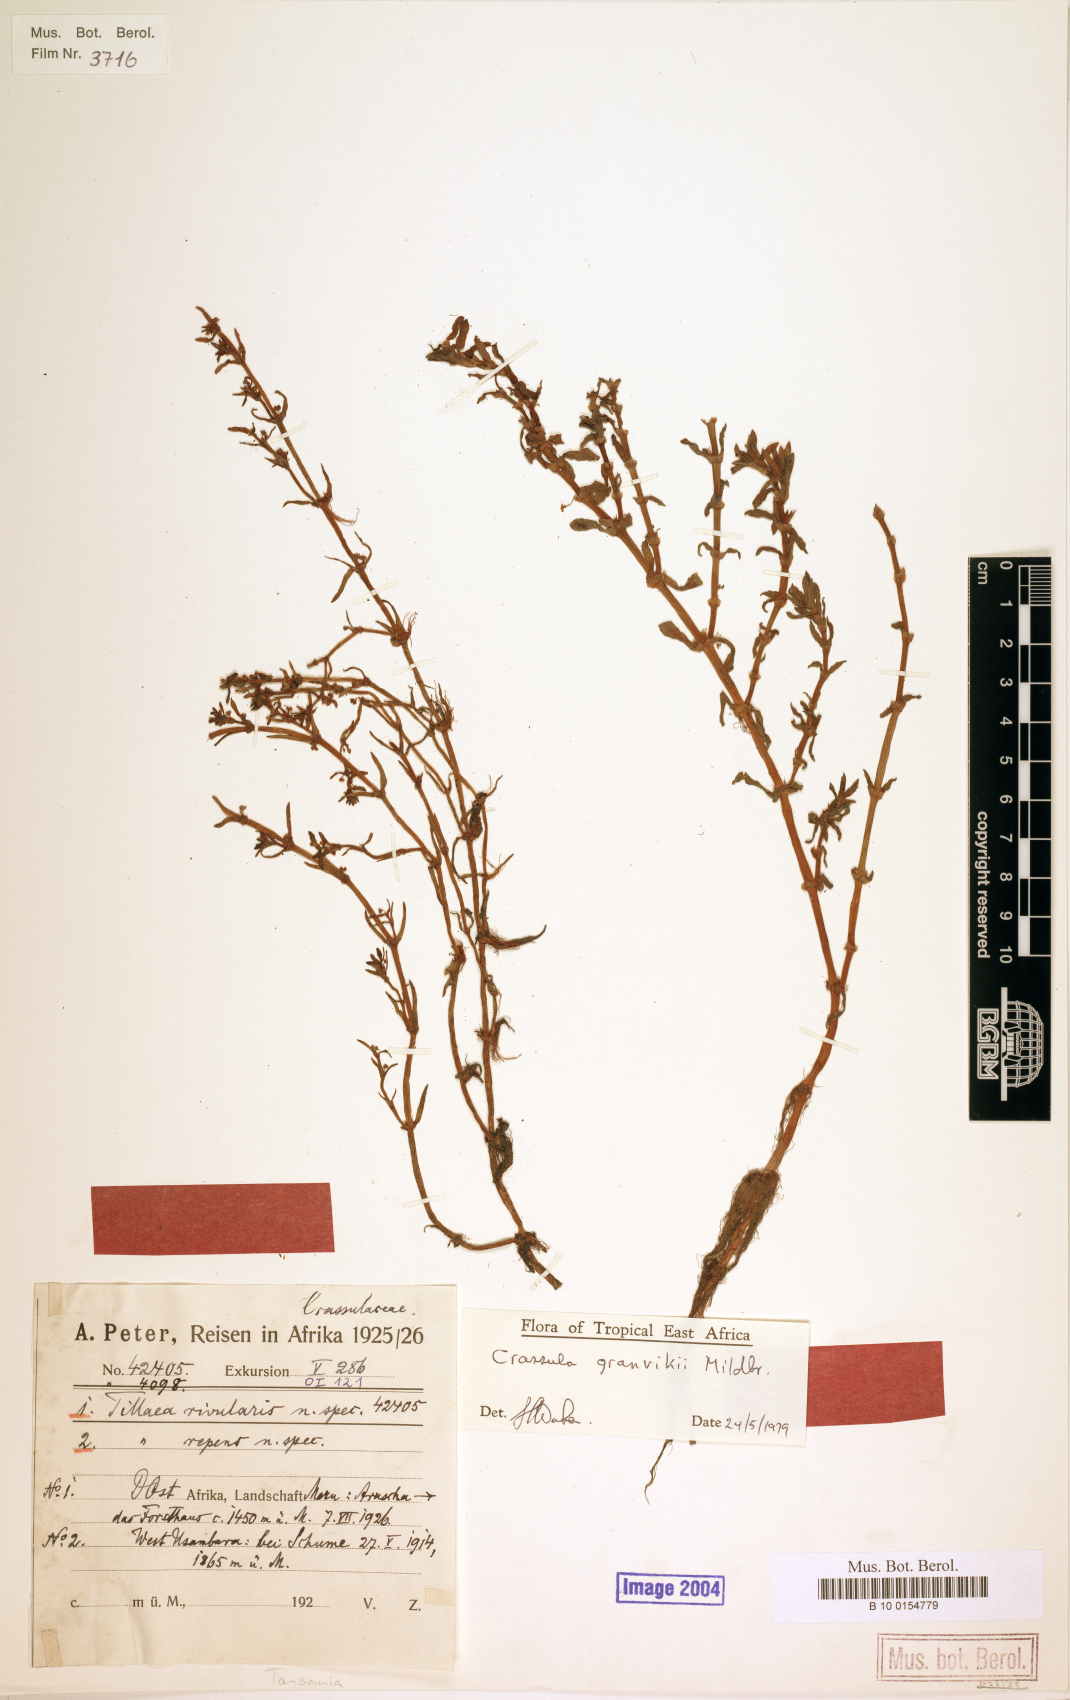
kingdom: Plantae
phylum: Tracheophyta
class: Magnoliopsida
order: Saxifragales
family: Crassulaceae
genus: Crassula
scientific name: Crassula granvikii
